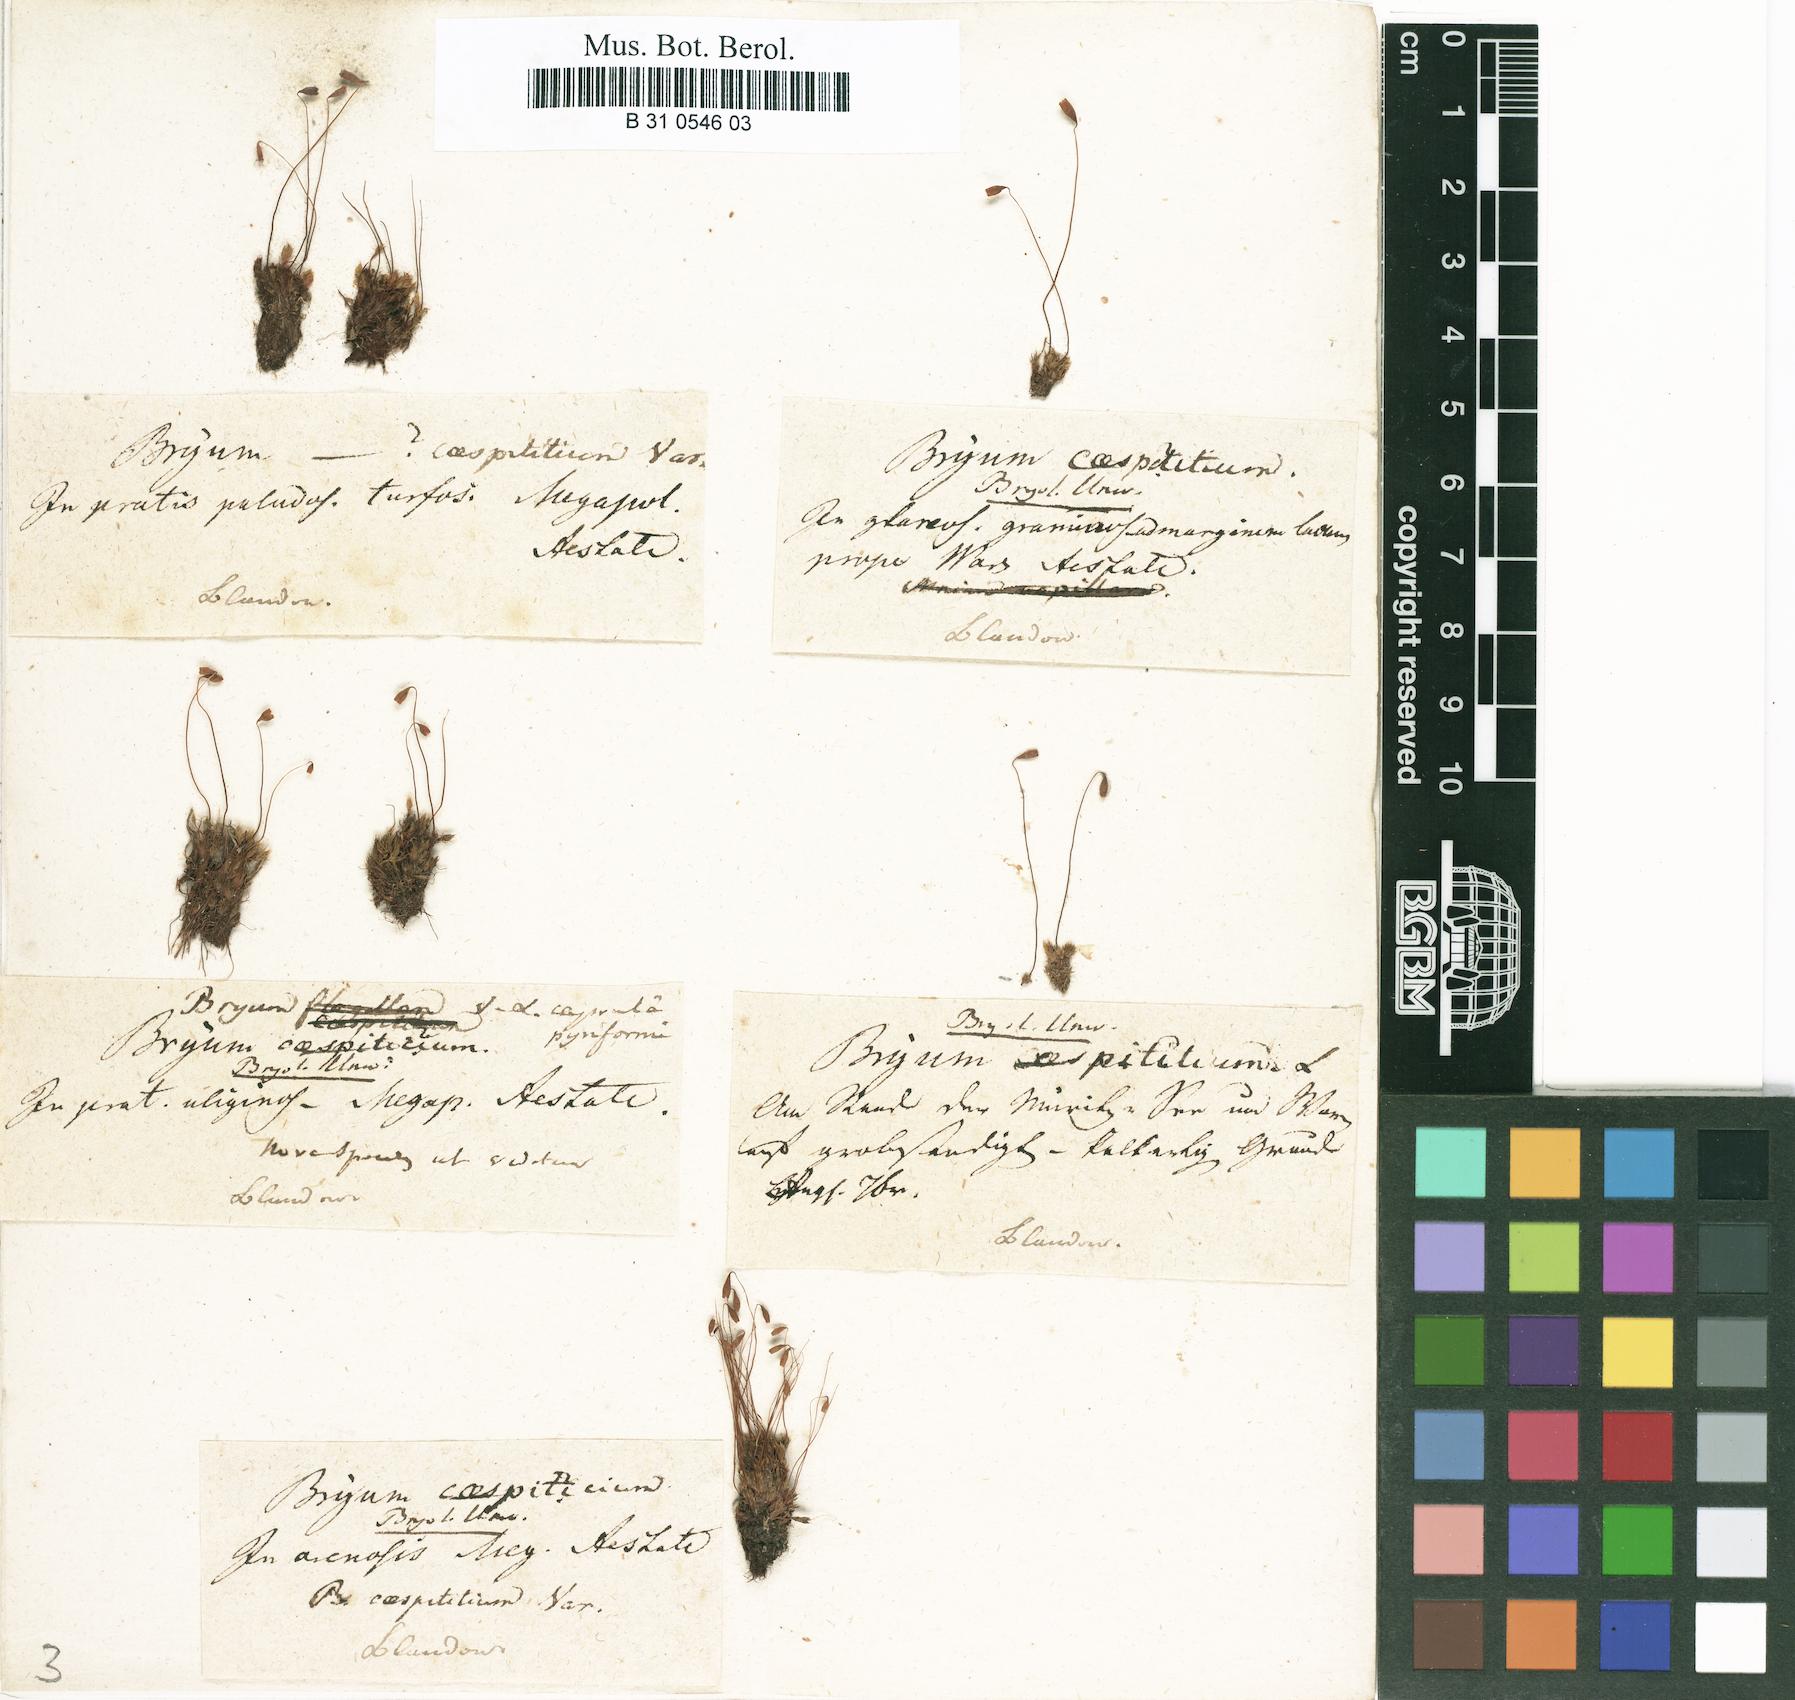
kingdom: Plantae
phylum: Bryophyta
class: Bryopsida
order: Bryales
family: Bryaceae
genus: Gemmabryum
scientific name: Gemmabryum caespiticium
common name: Handbell moss
